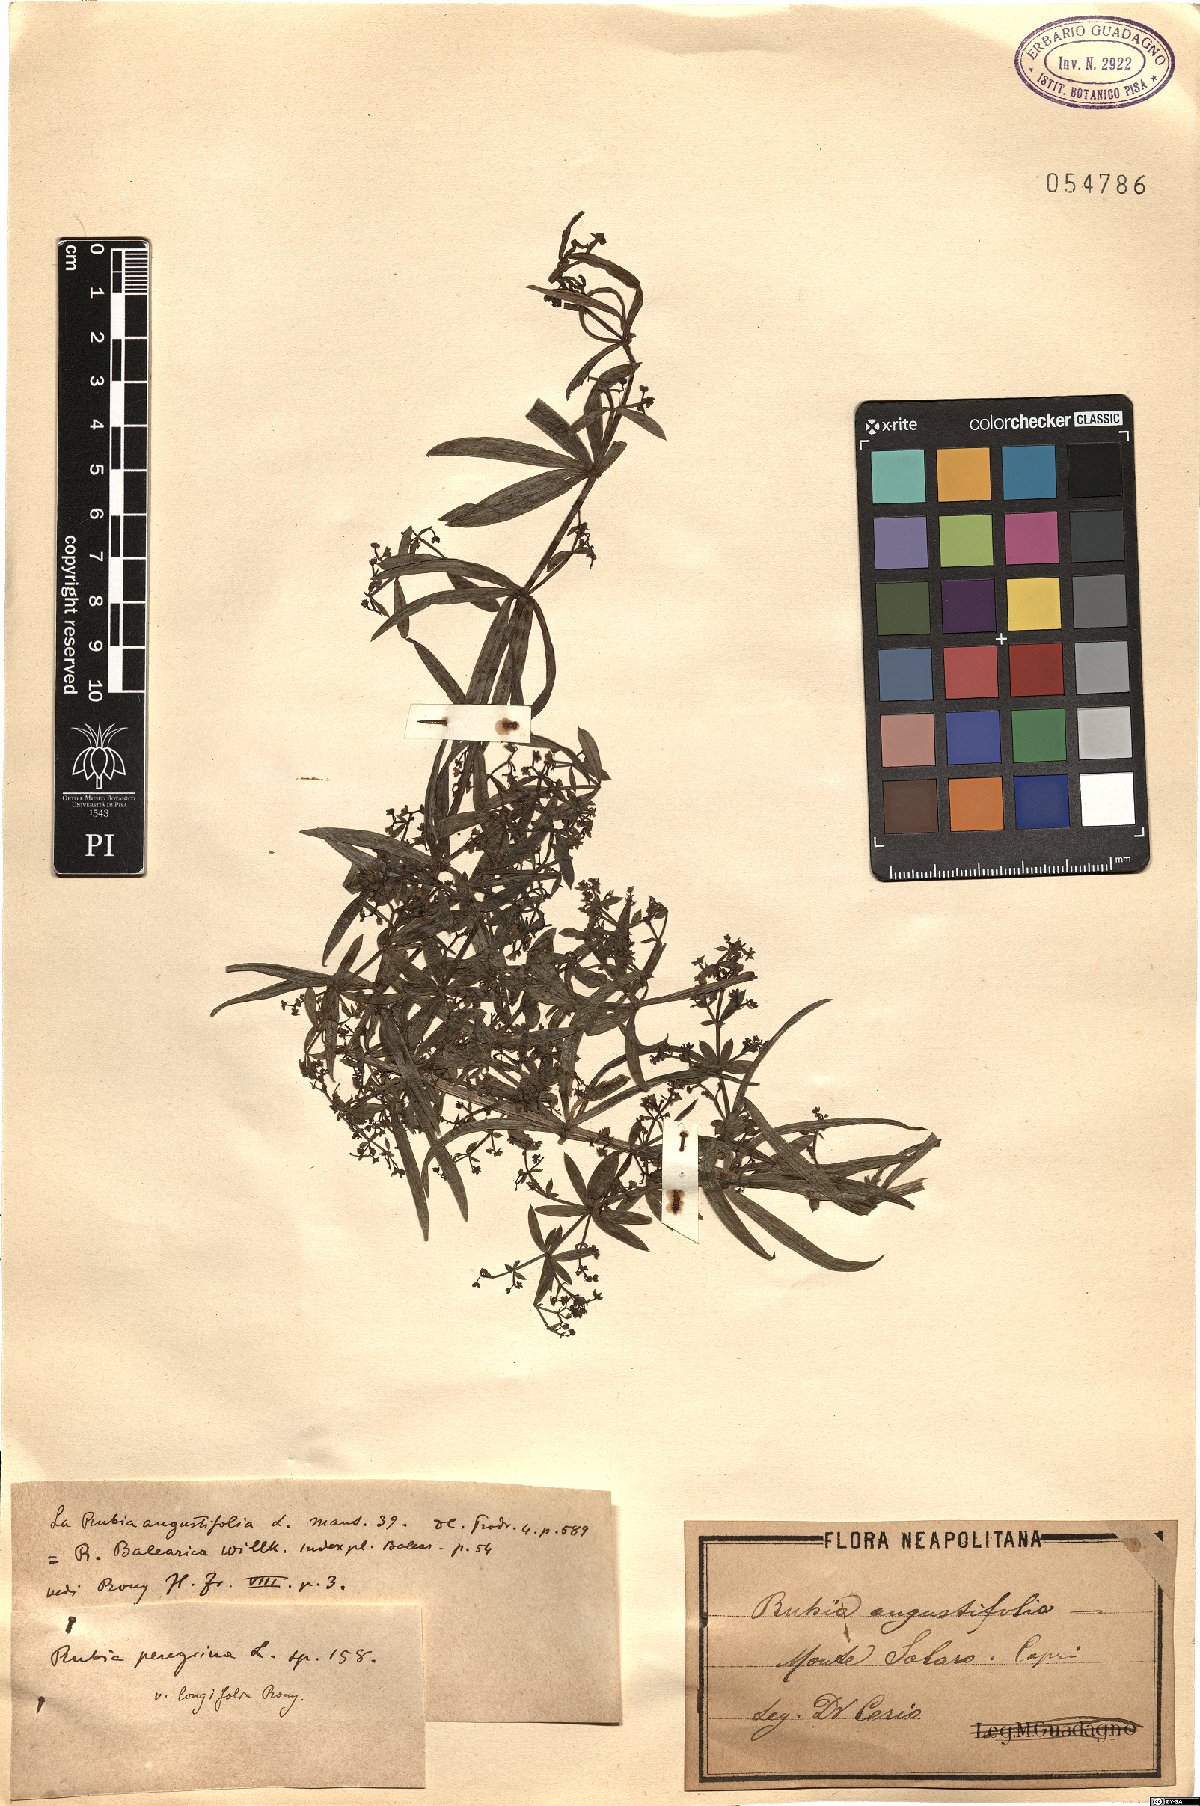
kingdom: Plantae
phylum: Tracheophyta
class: Magnoliopsida
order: Gentianales
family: Rubiaceae
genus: Rubia
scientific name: Rubia peregrina
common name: Wild madder
